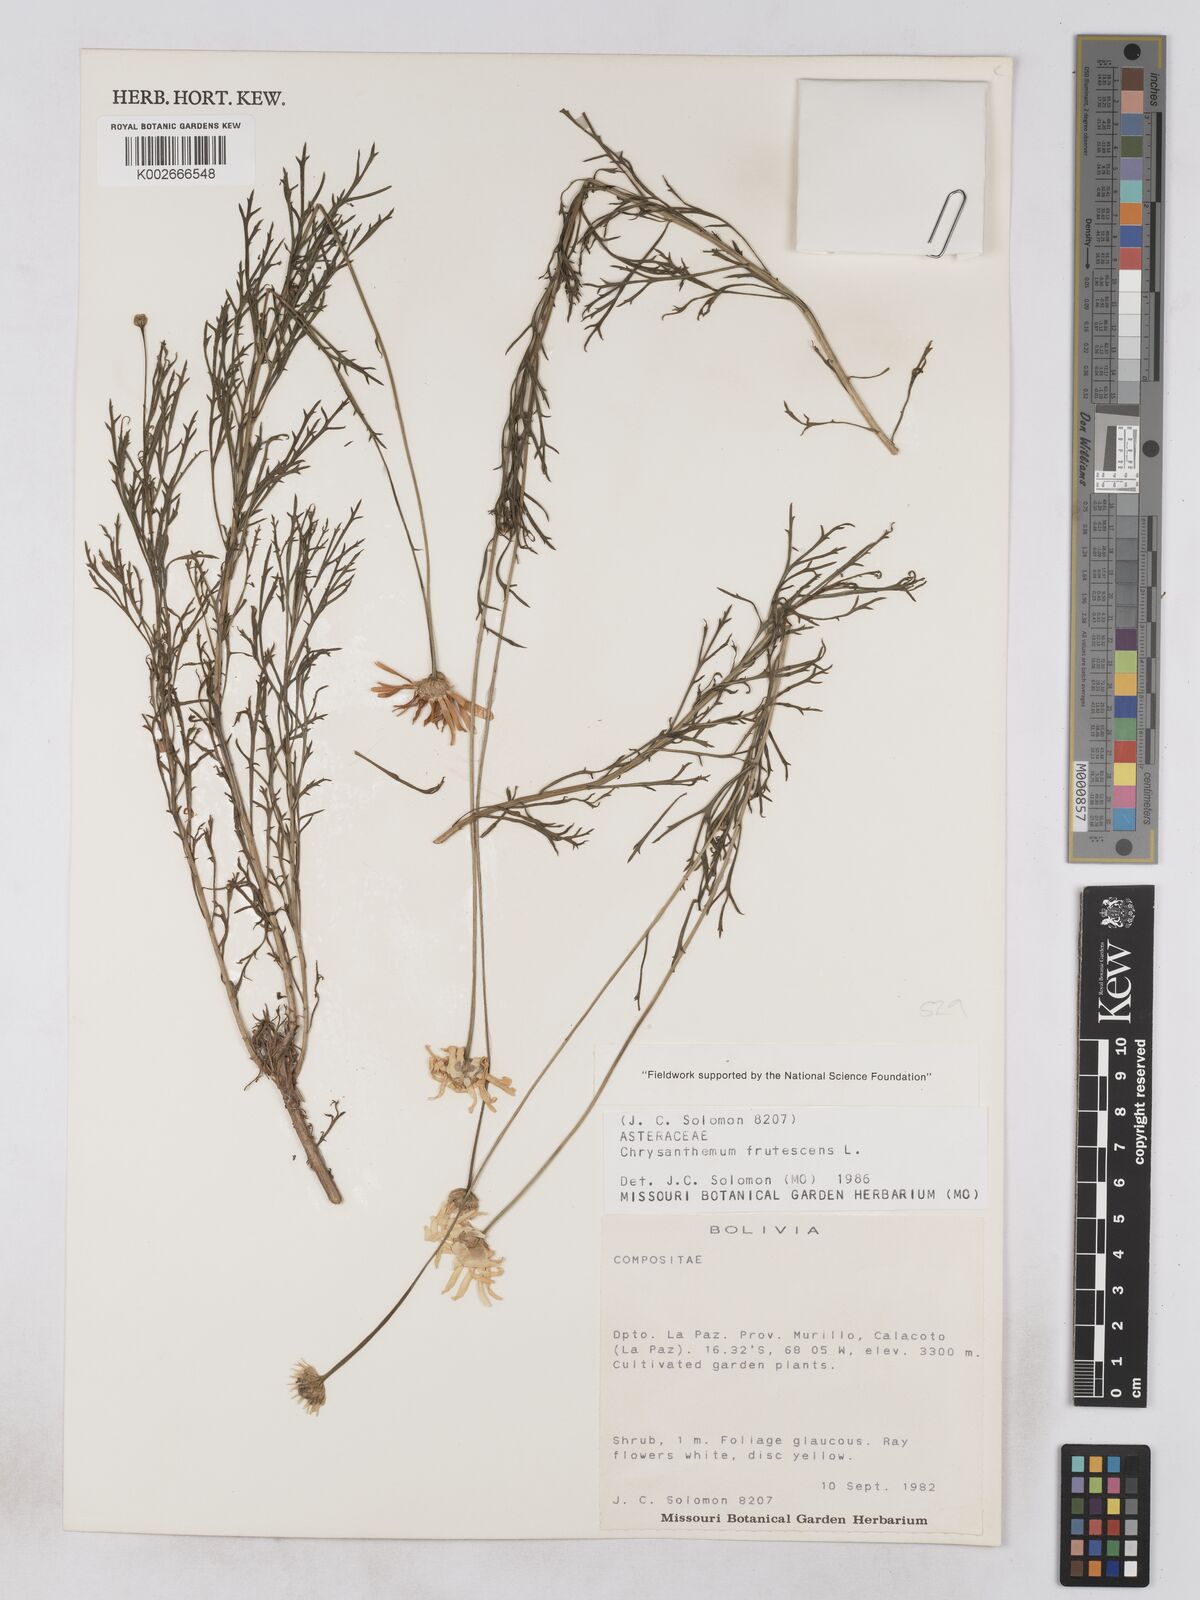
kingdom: Plantae
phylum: Tracheophyta
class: Magnoliopsida
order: Asterales
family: Asteraceae
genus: Argyranthemum
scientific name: Argyranthemum frutescens
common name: Paris daisy
